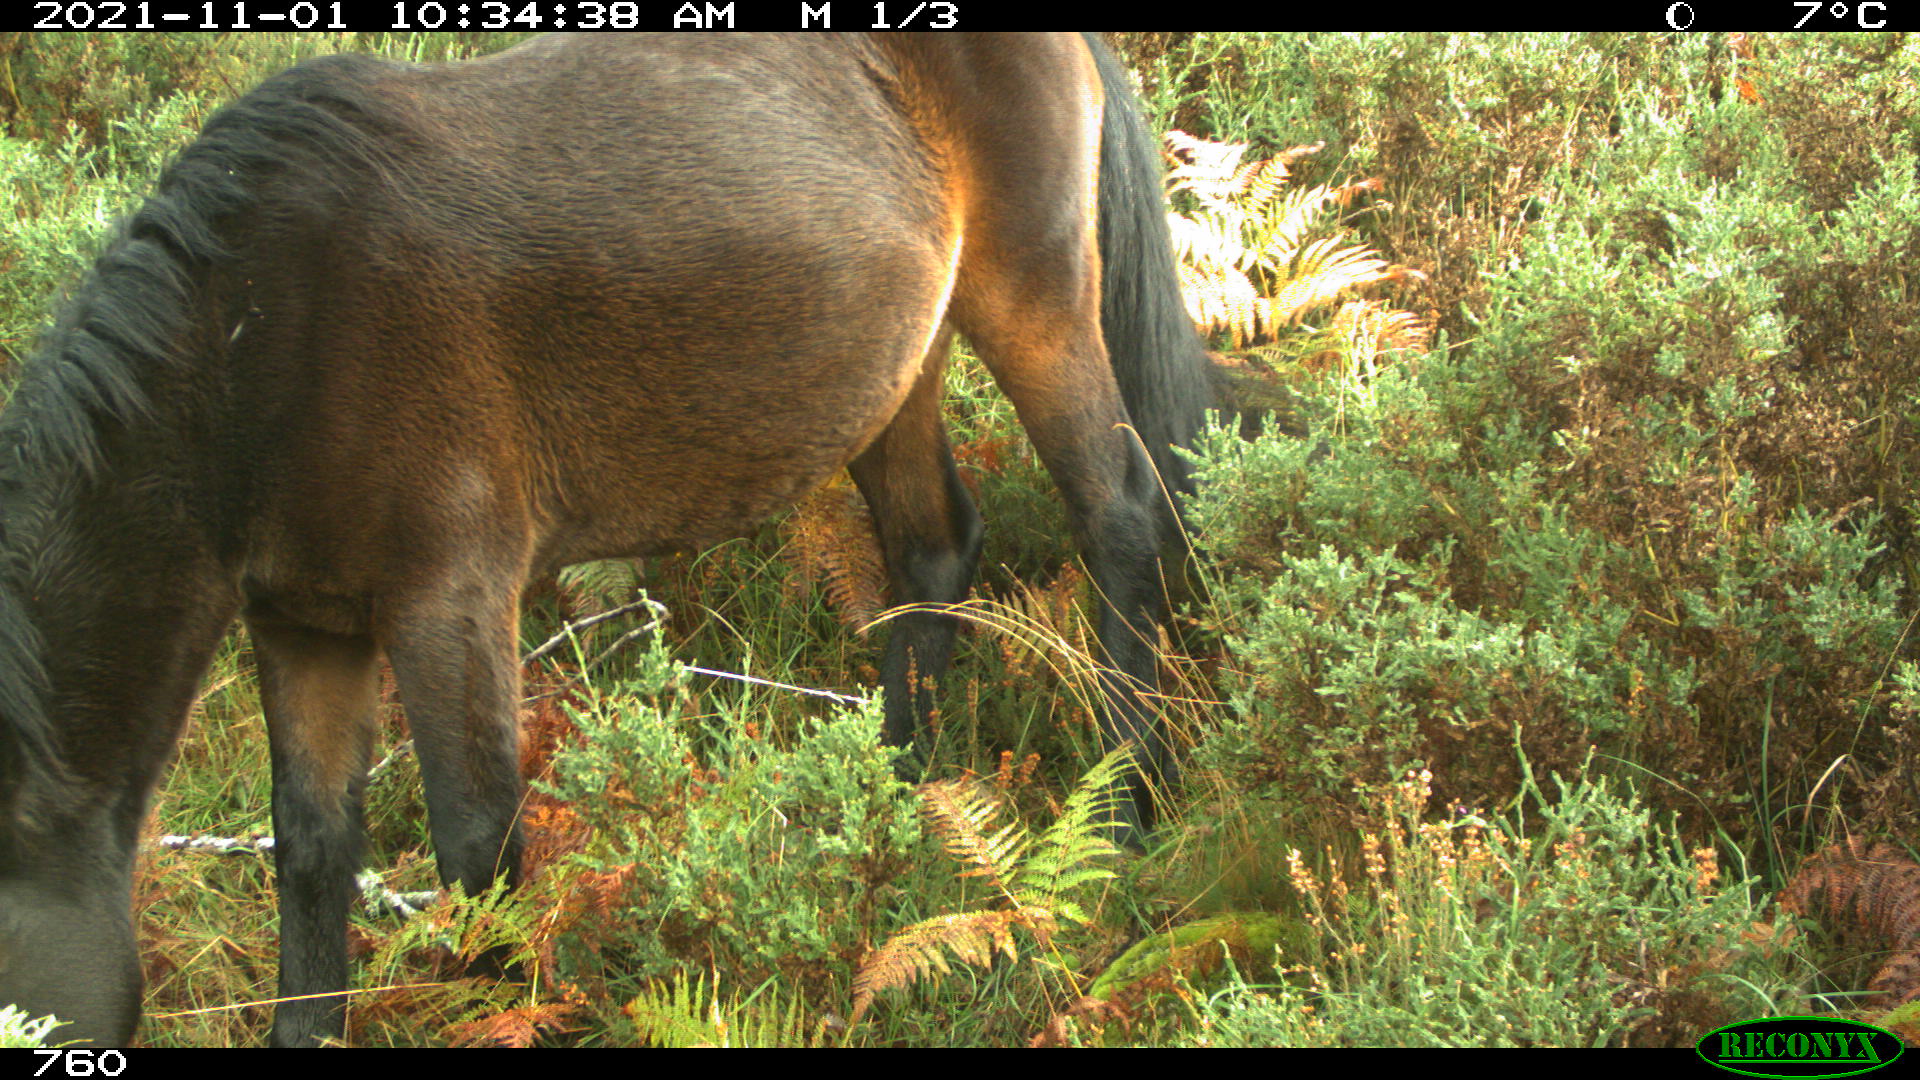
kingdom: Animalia
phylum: Chordata
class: Mammalia
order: Perissodactyla
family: Equidae
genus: Equus
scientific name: Equus caballus
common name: Horse
